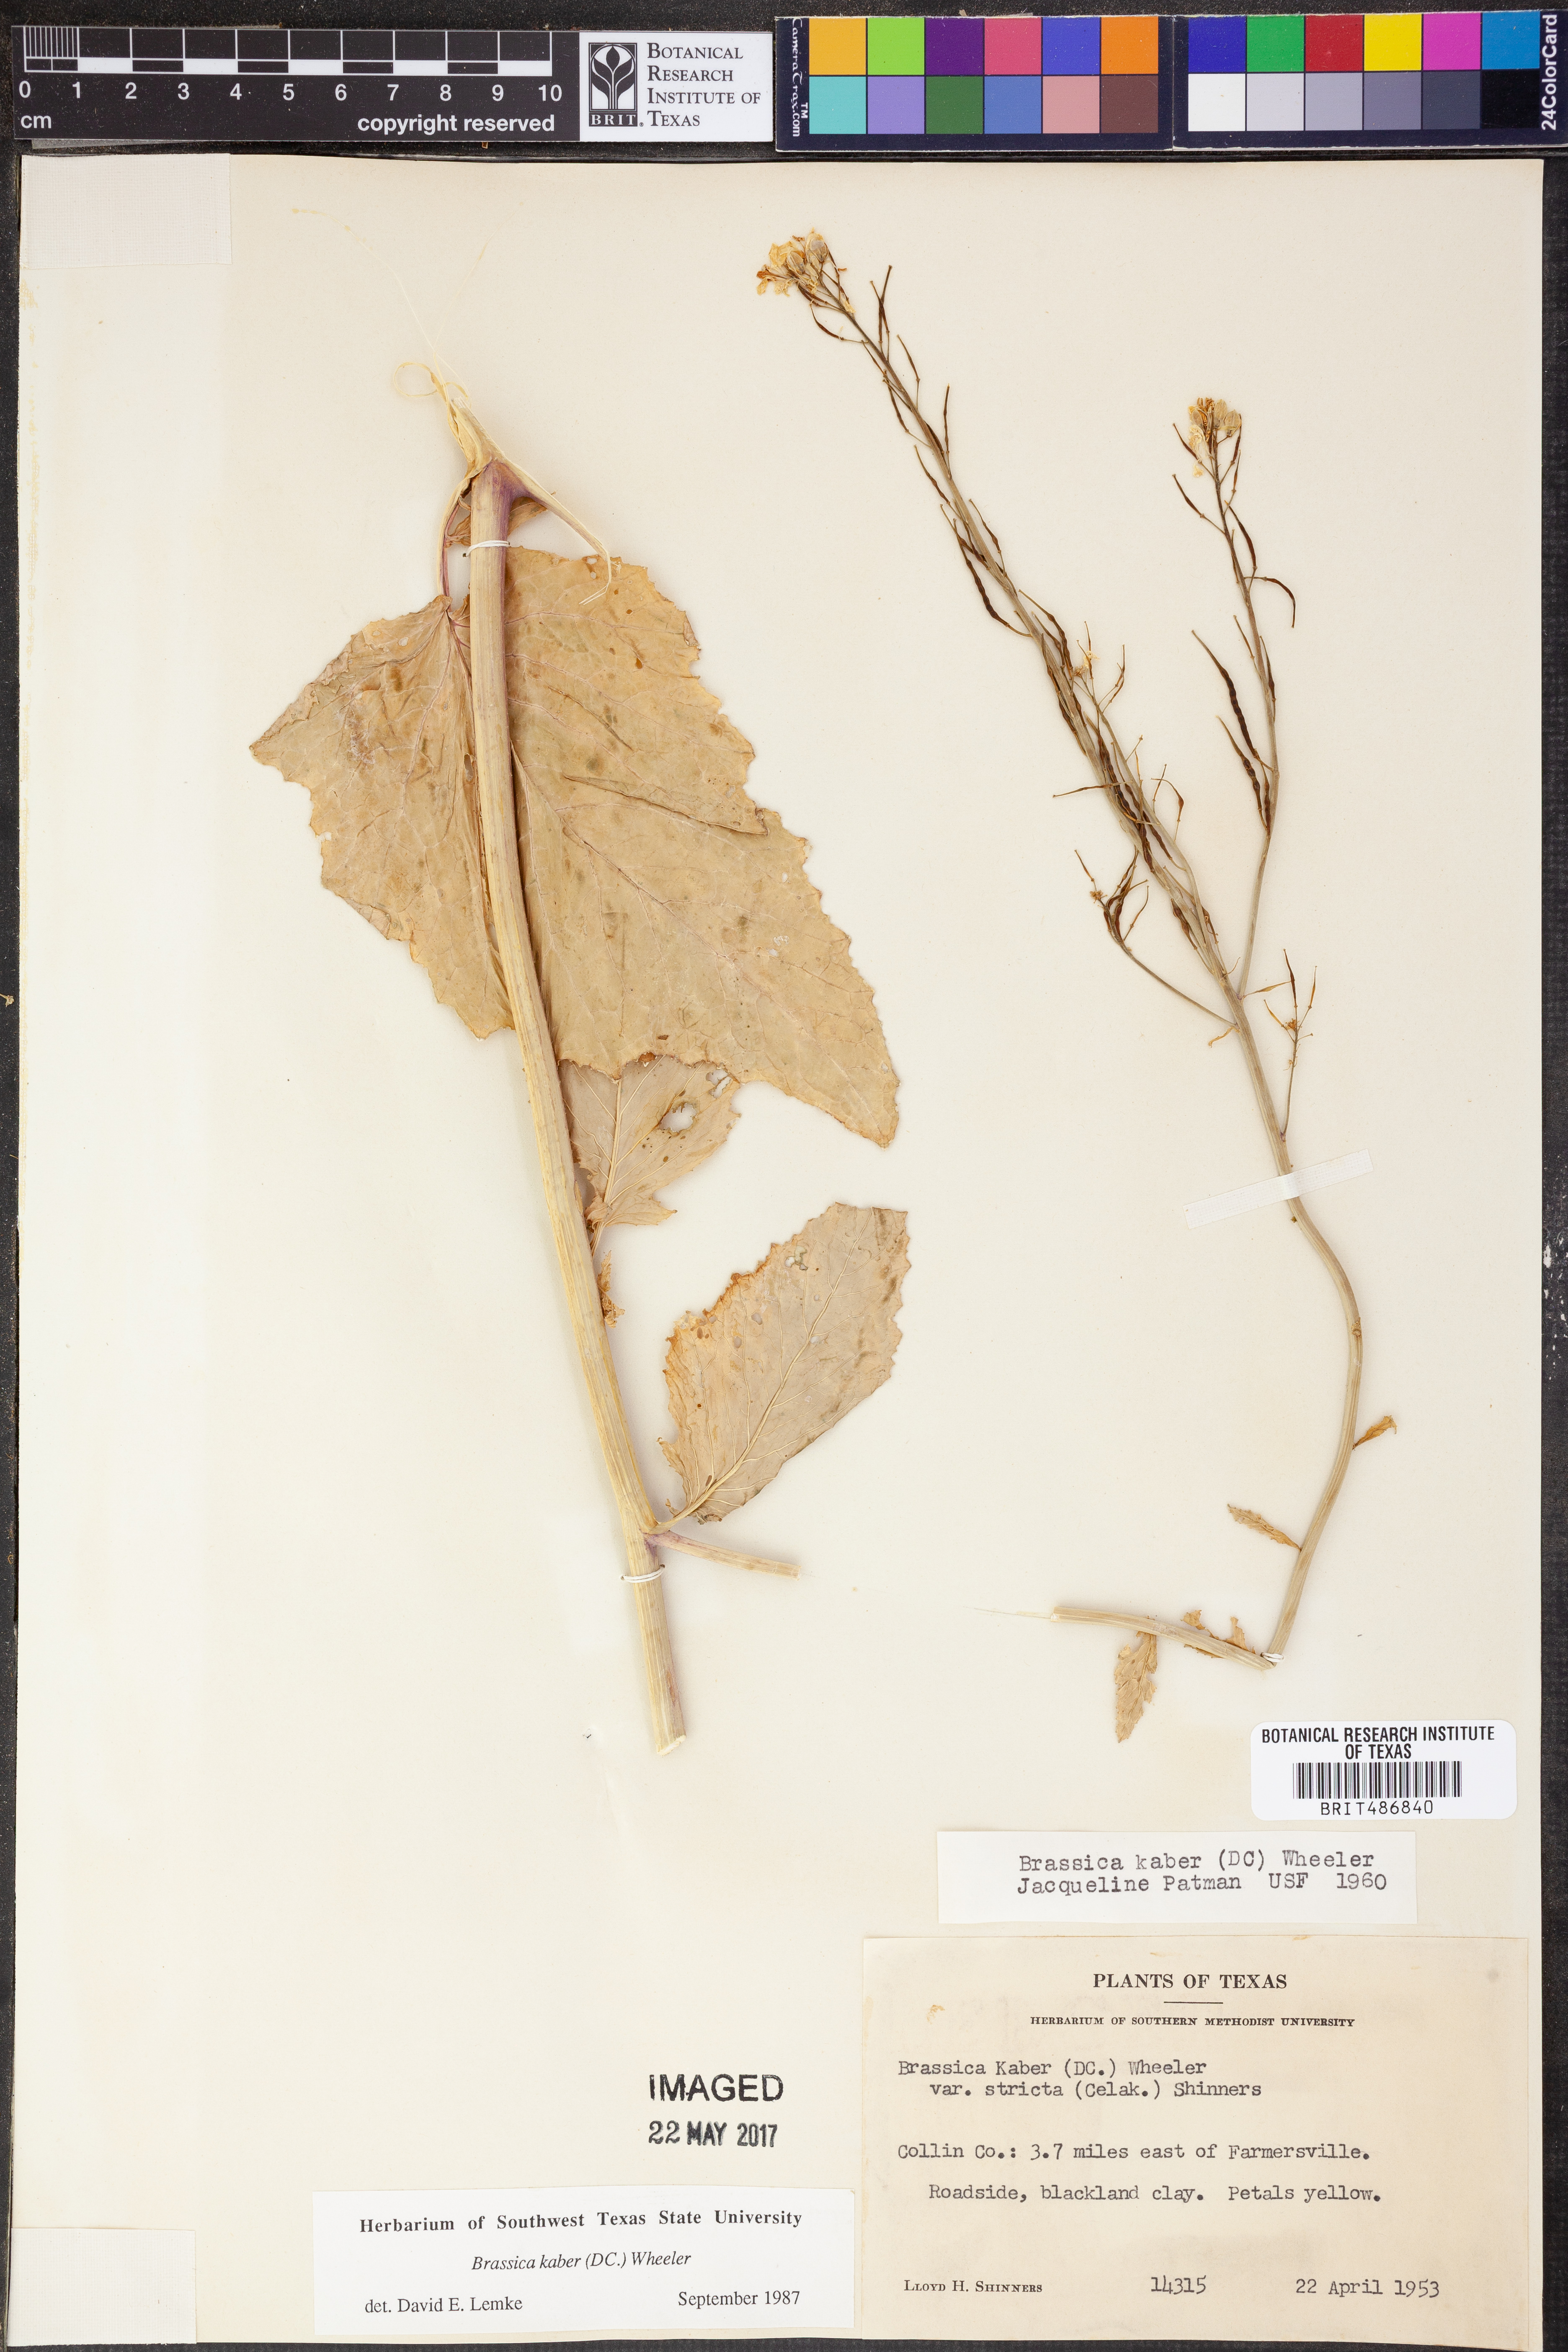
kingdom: Plantae
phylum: Tracheophyta
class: Magnoliopsida
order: Brassicales
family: Brassicaceae
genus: Sinapis
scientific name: Sinapis arvensis
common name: Charlock
